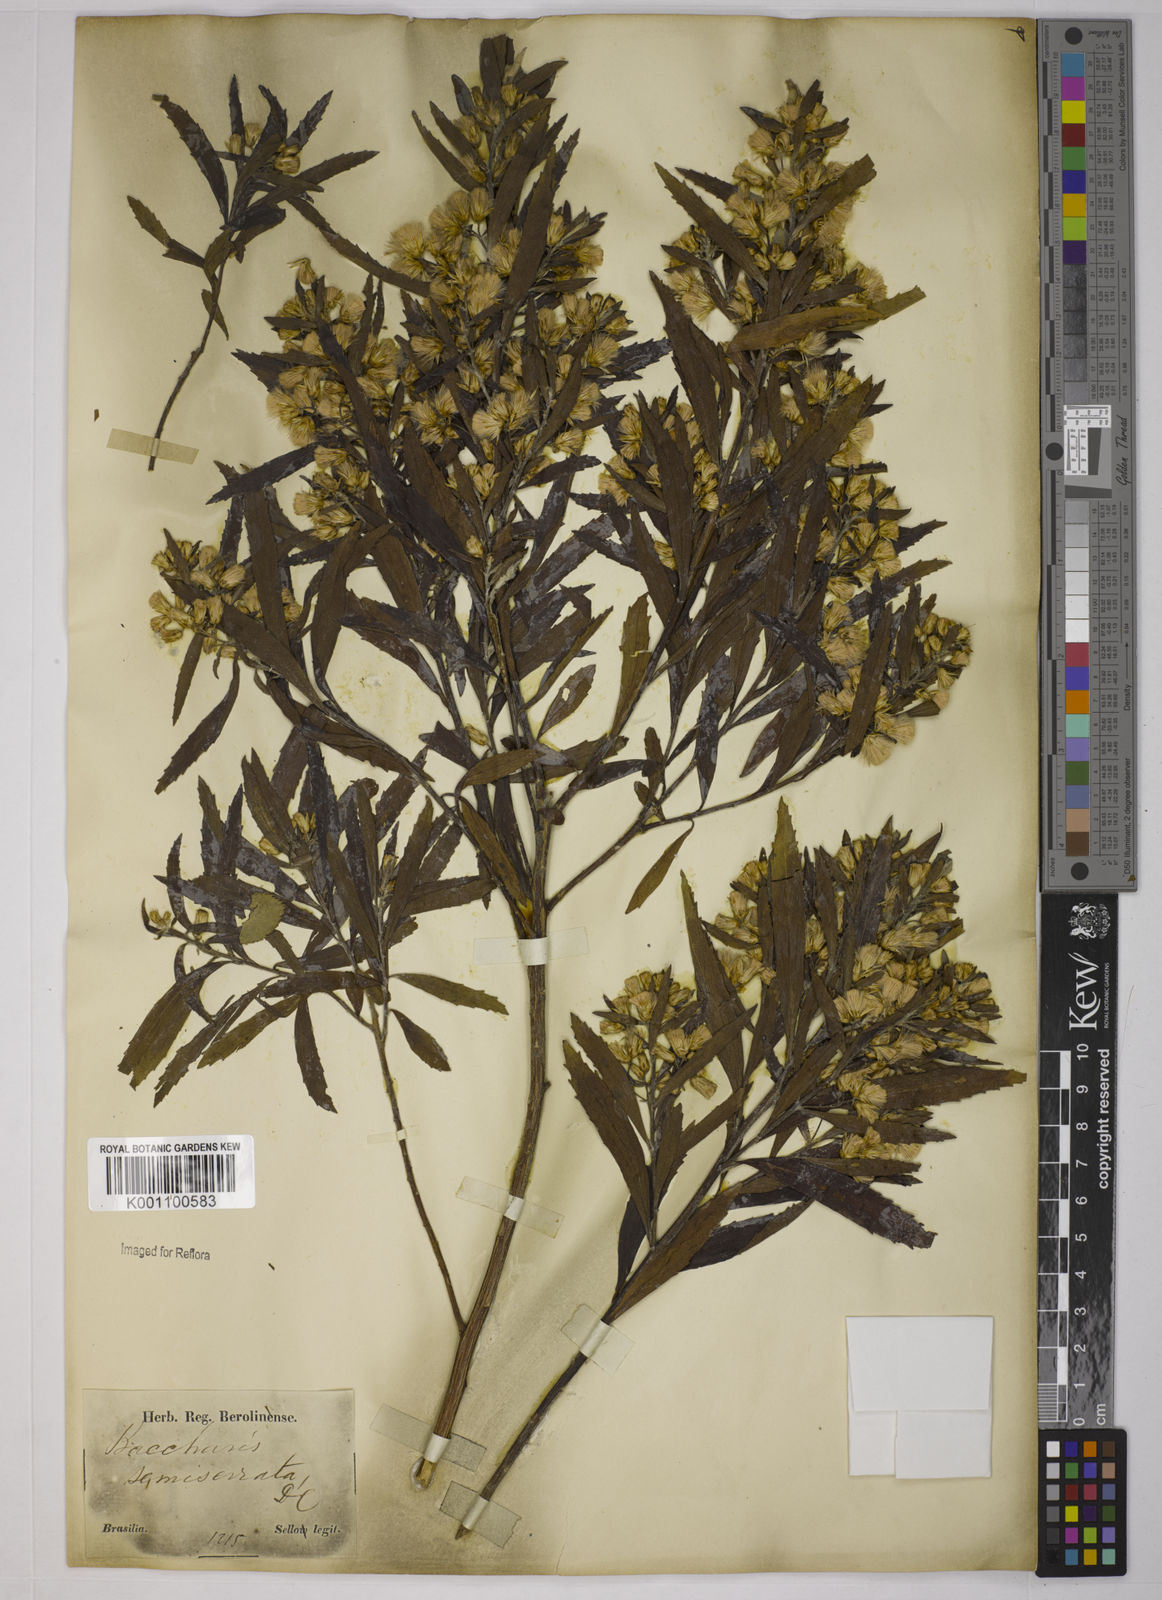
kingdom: Plantae
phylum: Tracheophyta
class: Magnoliopsida
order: Asterales
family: Asteraceae
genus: Baccharis
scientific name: Baccharis gnidiifolia
